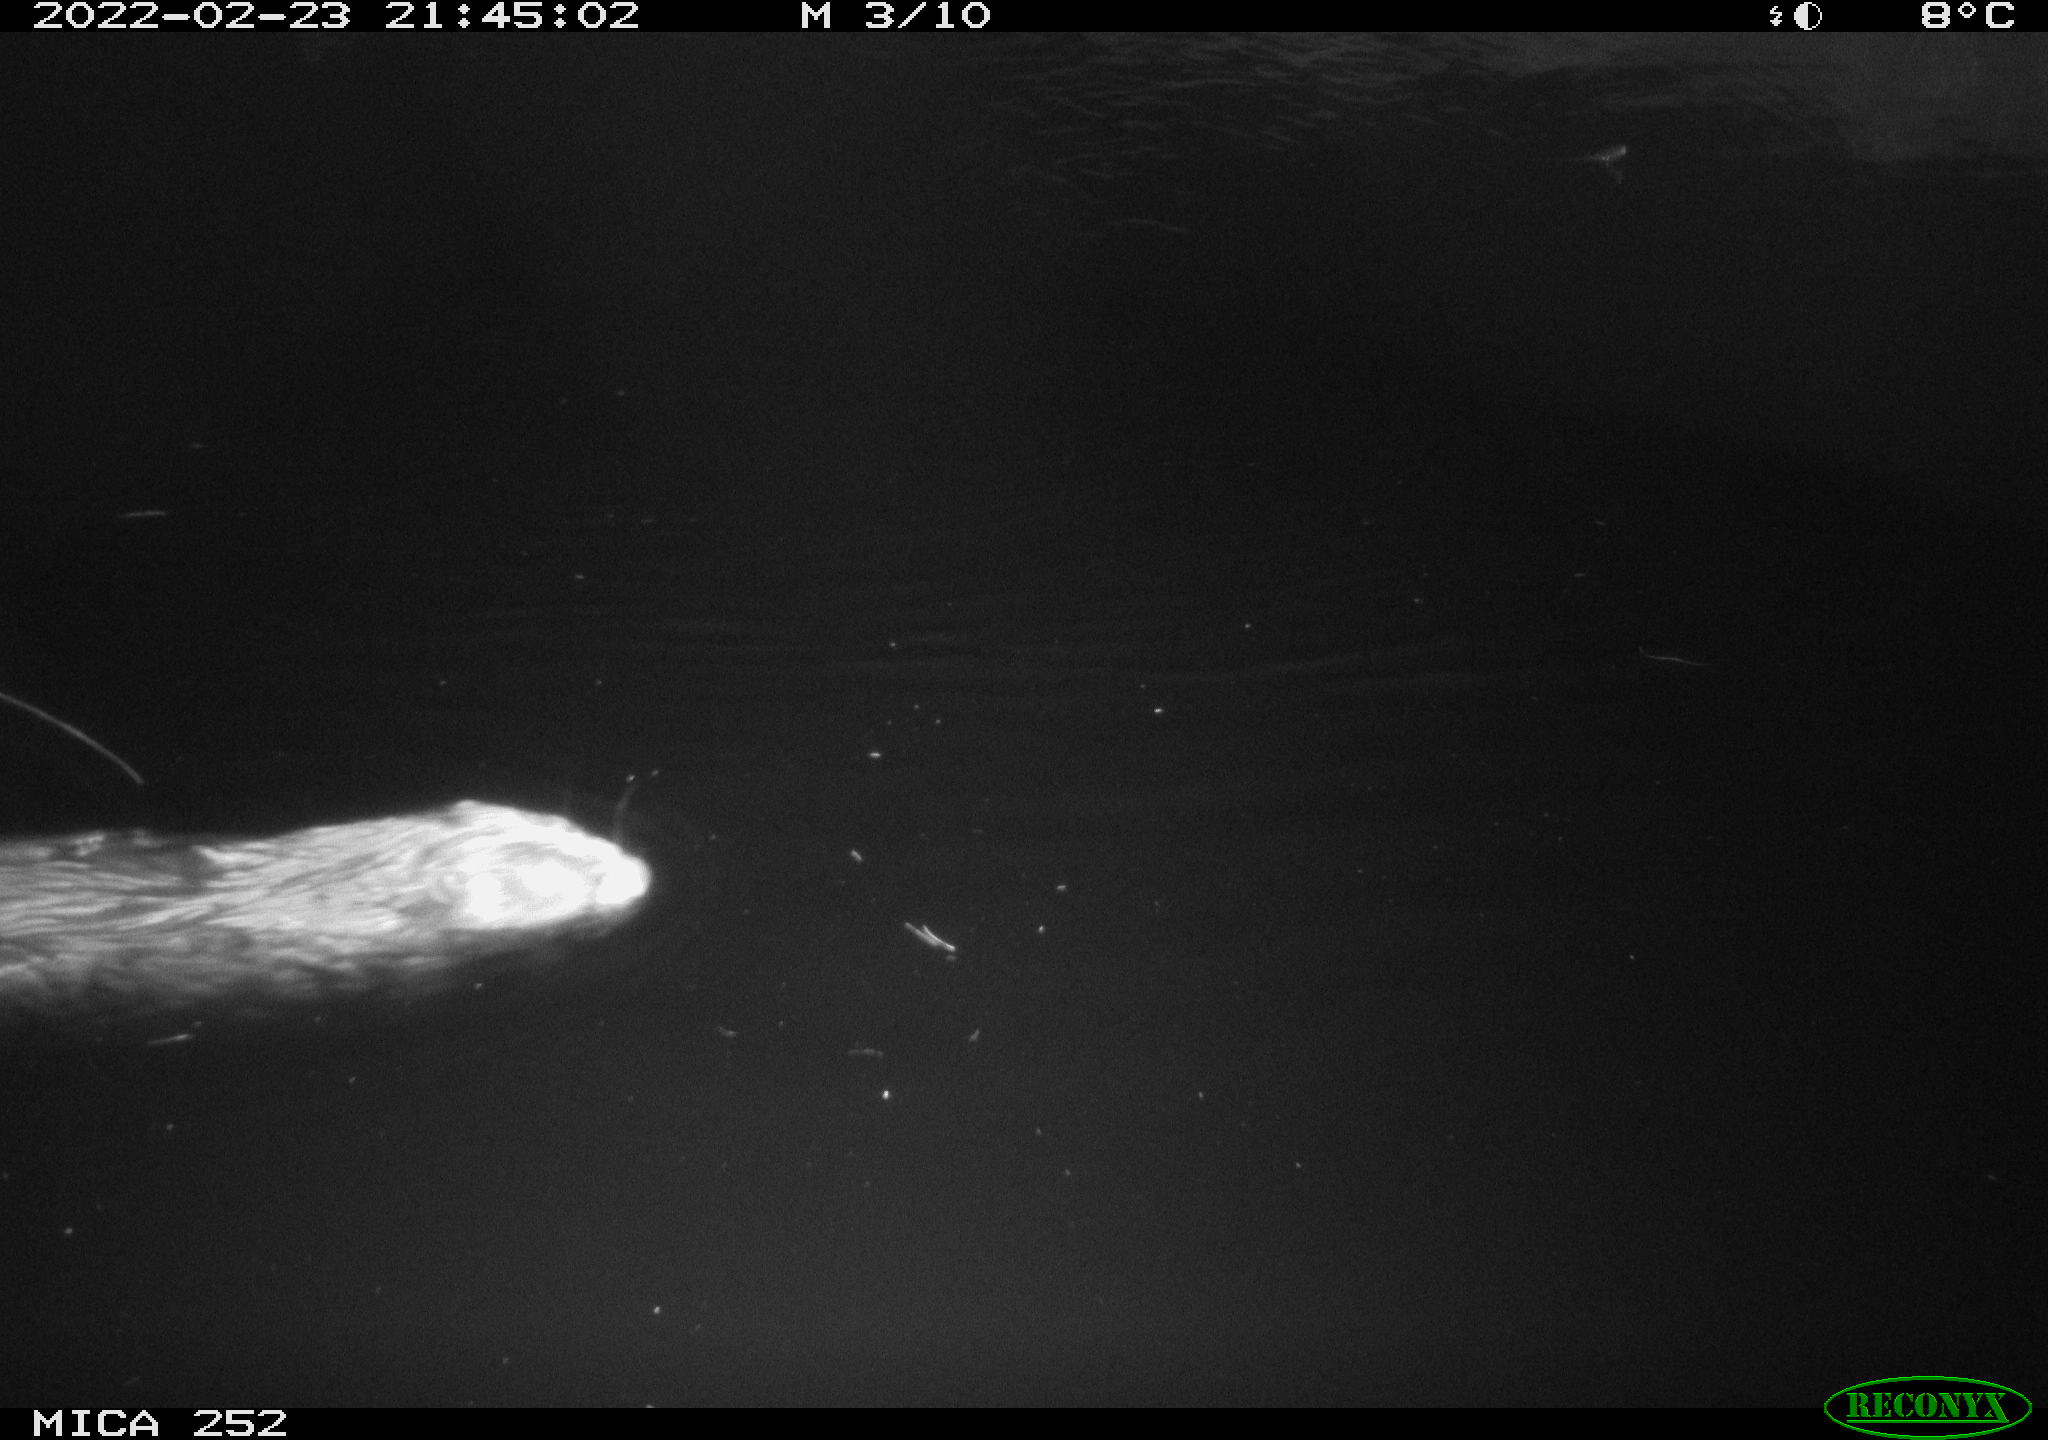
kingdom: Animalia
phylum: Chordata
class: Mammalia
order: Rodentia
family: Castoridae
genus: Castor
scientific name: Castor fiber
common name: Eurasian beaver
